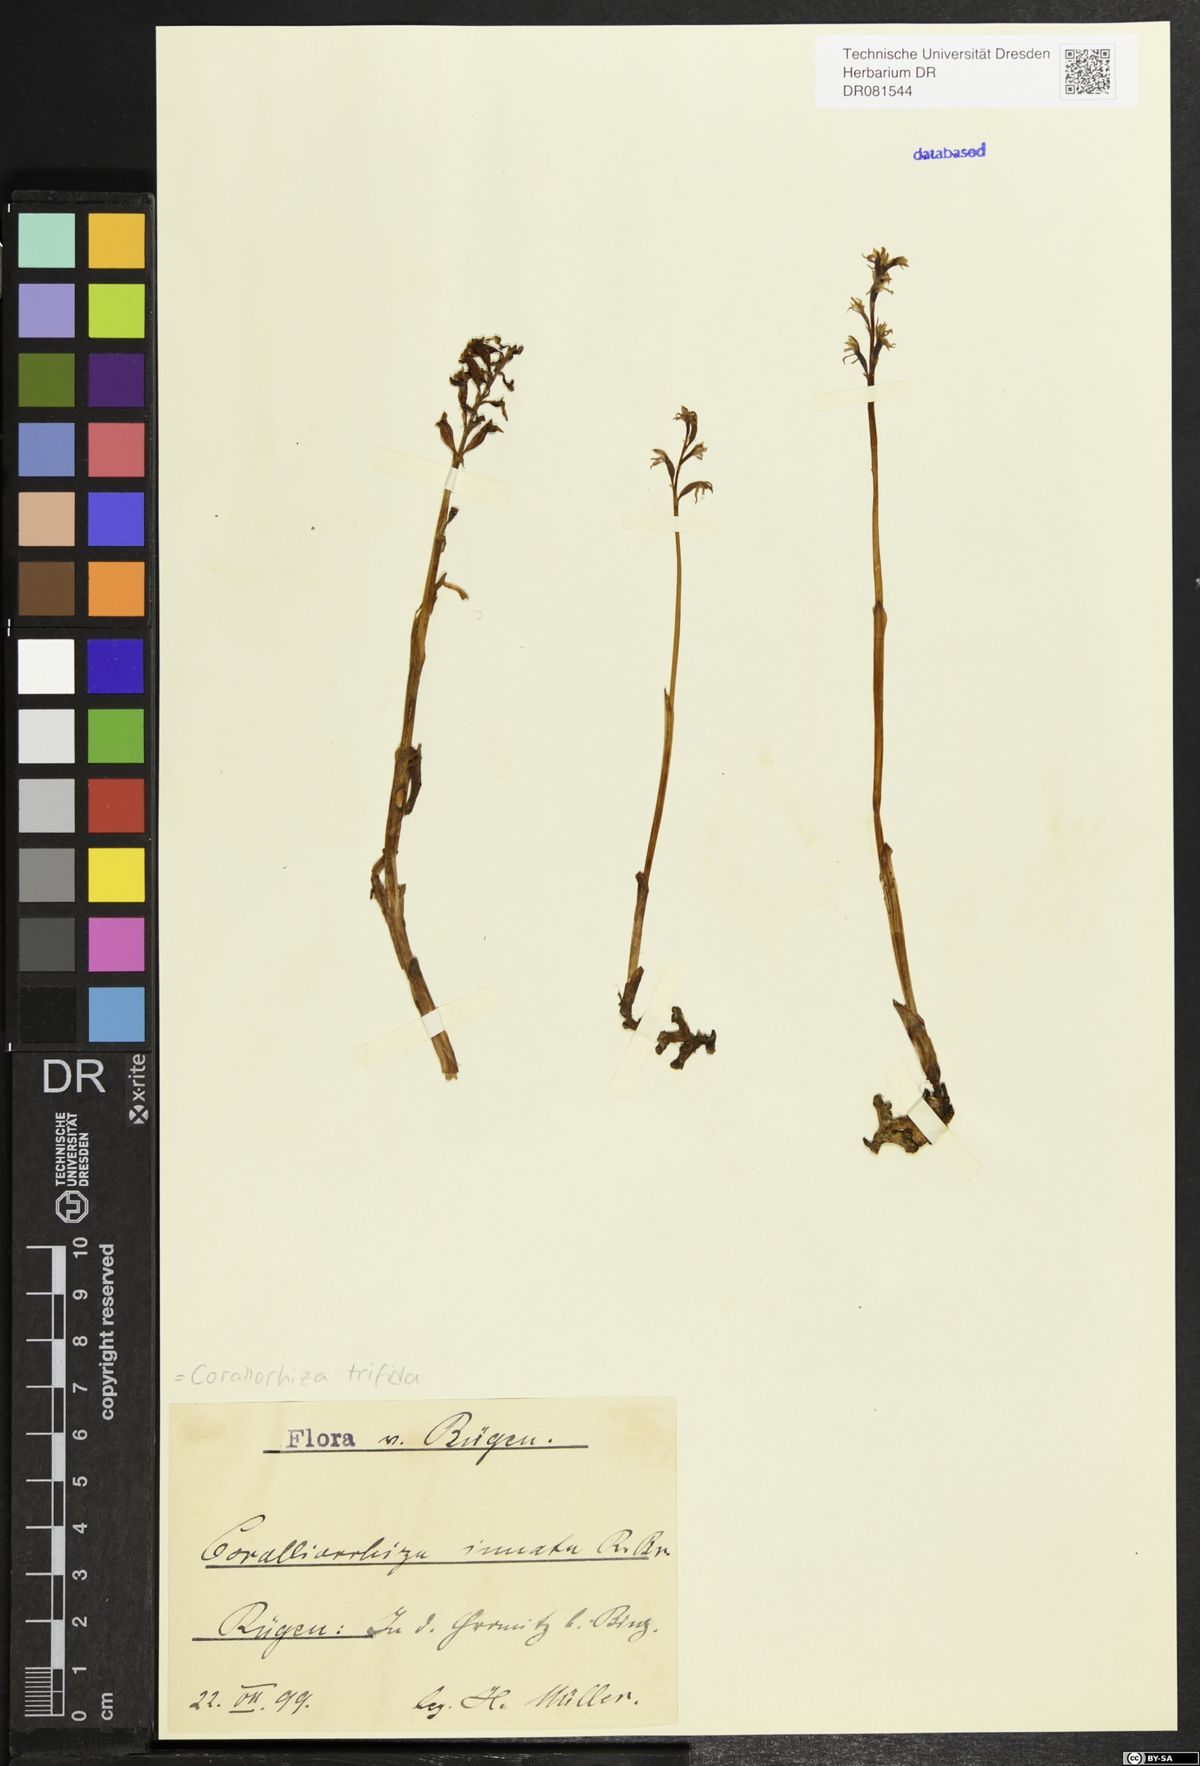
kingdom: Plantae
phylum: Tracheophyta
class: Liliopsida
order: Asparagales
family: Orchidaceae
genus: Corallorhiza
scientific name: Corallorhiza trifida
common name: Yellow coralroot
